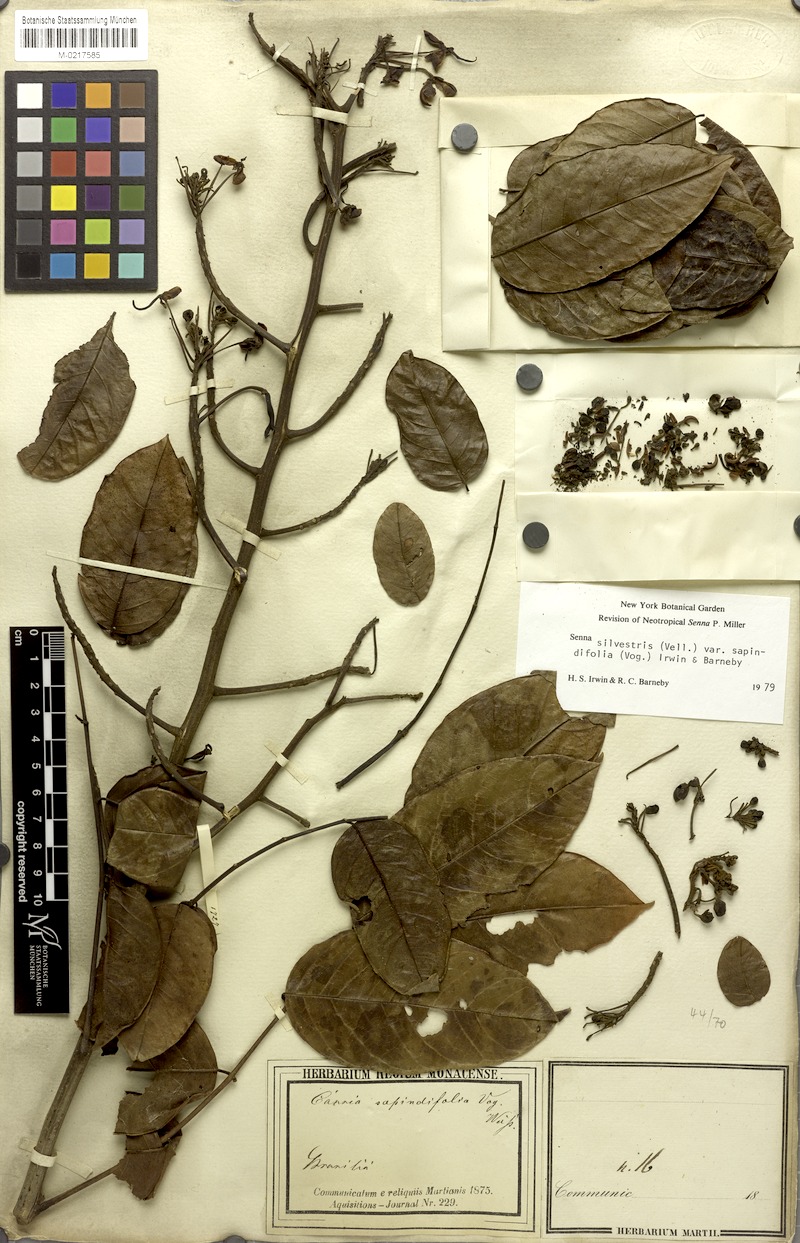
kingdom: Plantae
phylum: Tracheophyta
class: Magnoliopsida
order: Fabales
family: Fabaceae
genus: Senna
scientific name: Senna silvestris
